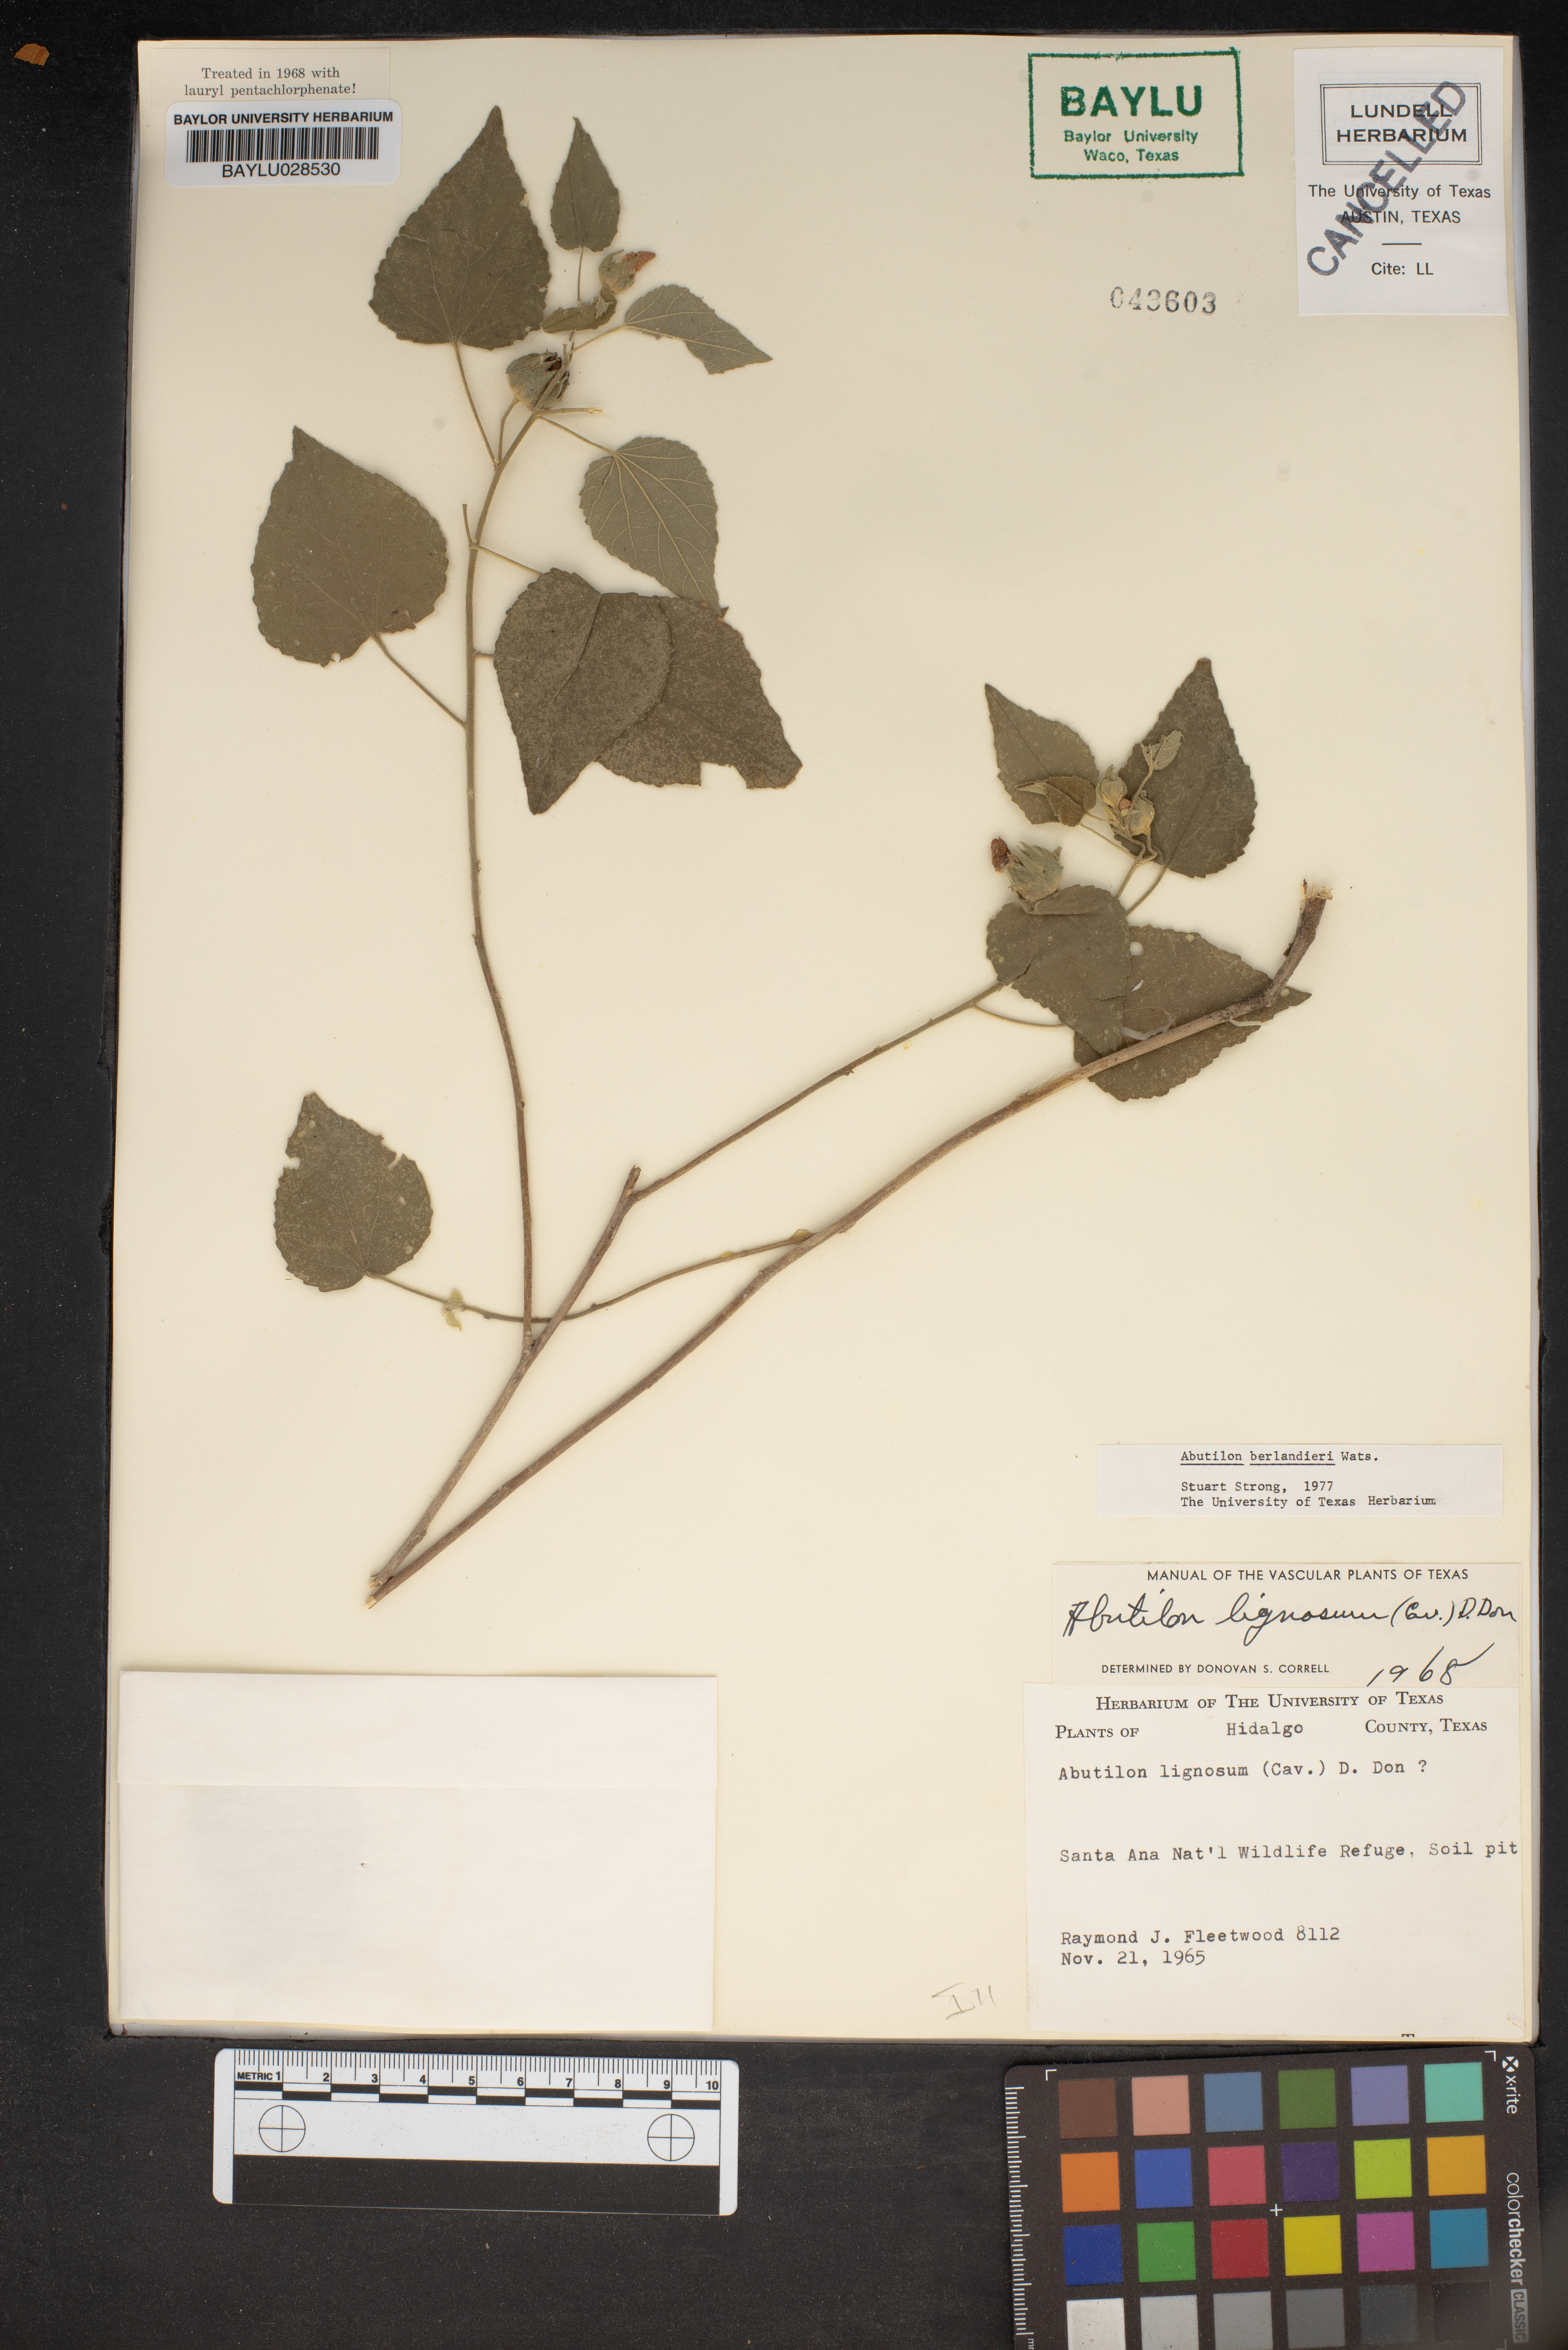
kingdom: Plantae
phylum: Tracheophyta
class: Magnoliopsida
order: Malvales
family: Malvaceae
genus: Abutilon
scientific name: Abutilon berlandieri
